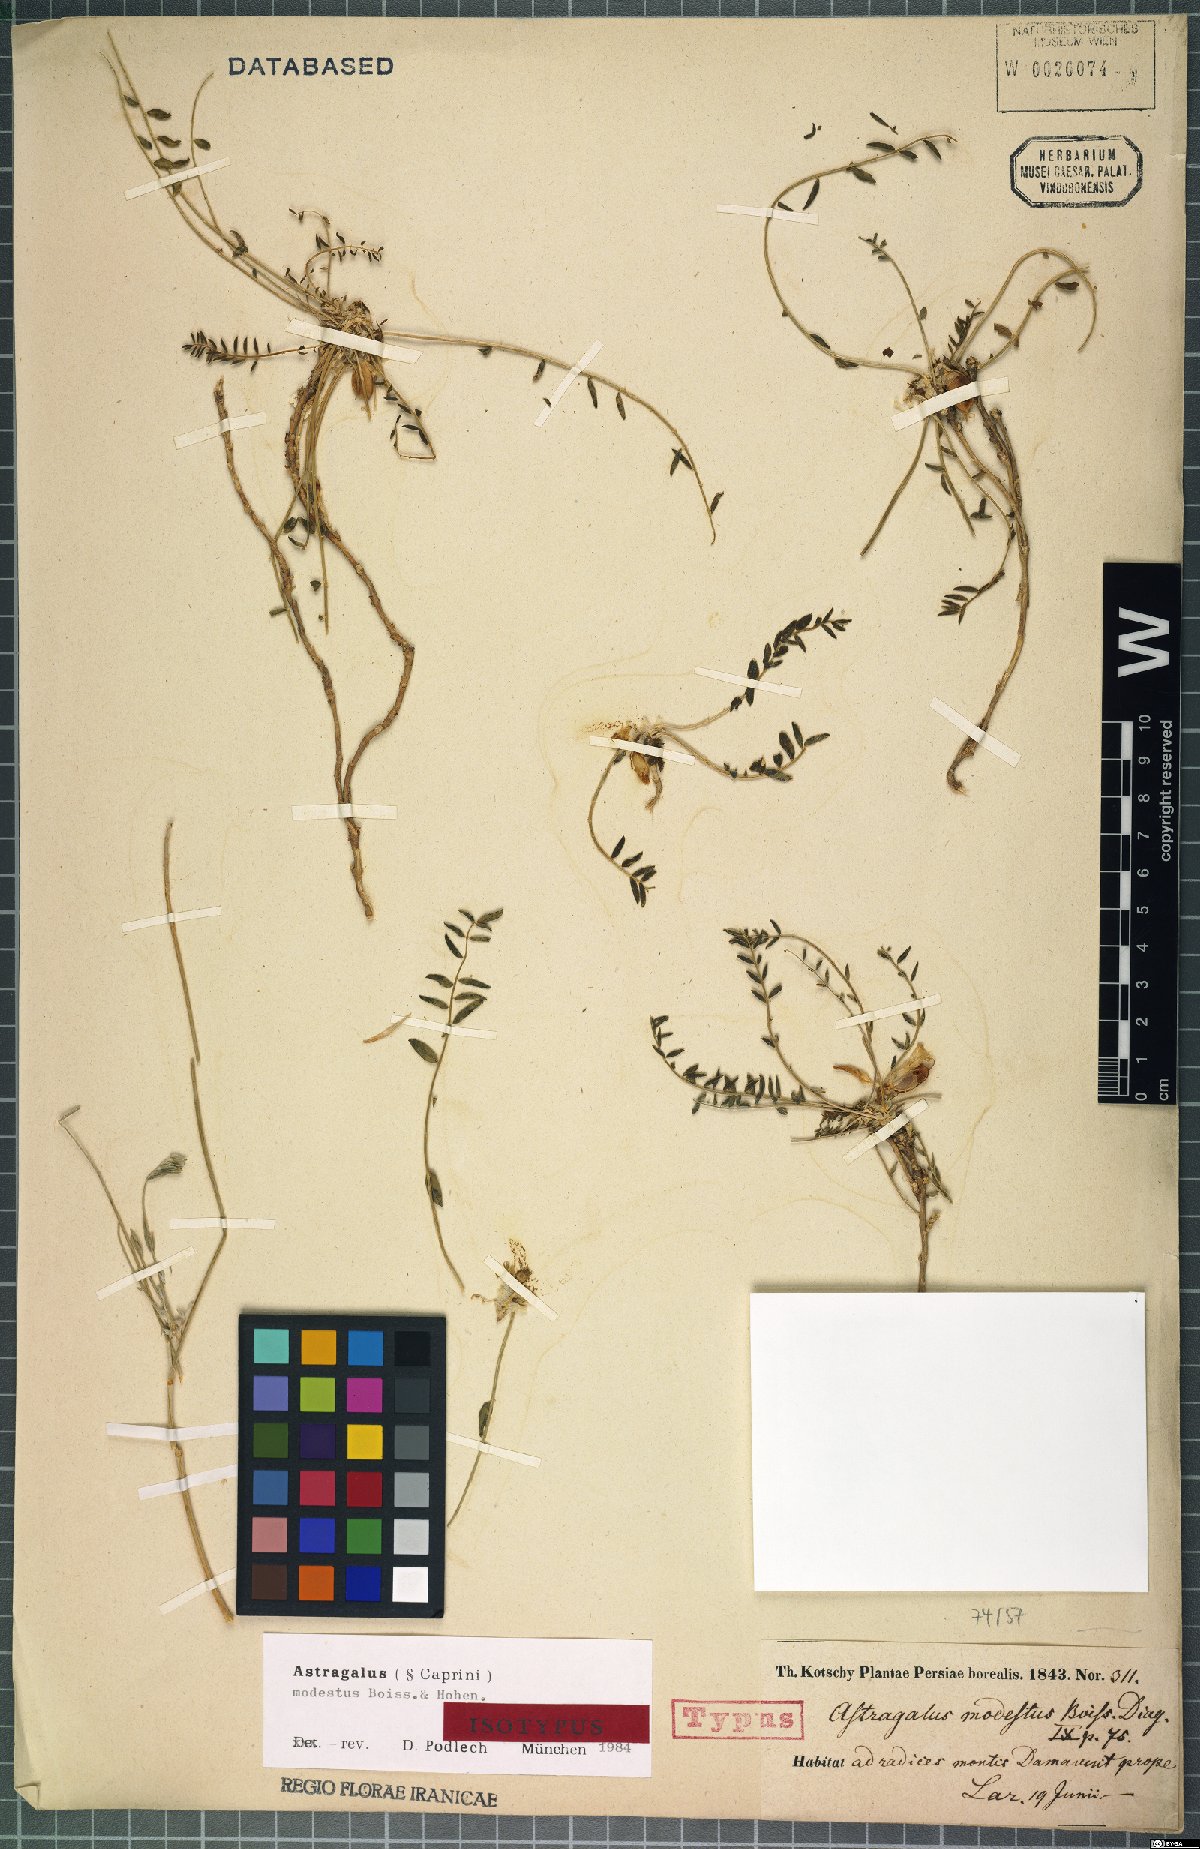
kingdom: Plantae
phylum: Tracheophyta
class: Magnoliopsida
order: Fabales
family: Fabaceae
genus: Astragalus
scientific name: Astragalus modestus
